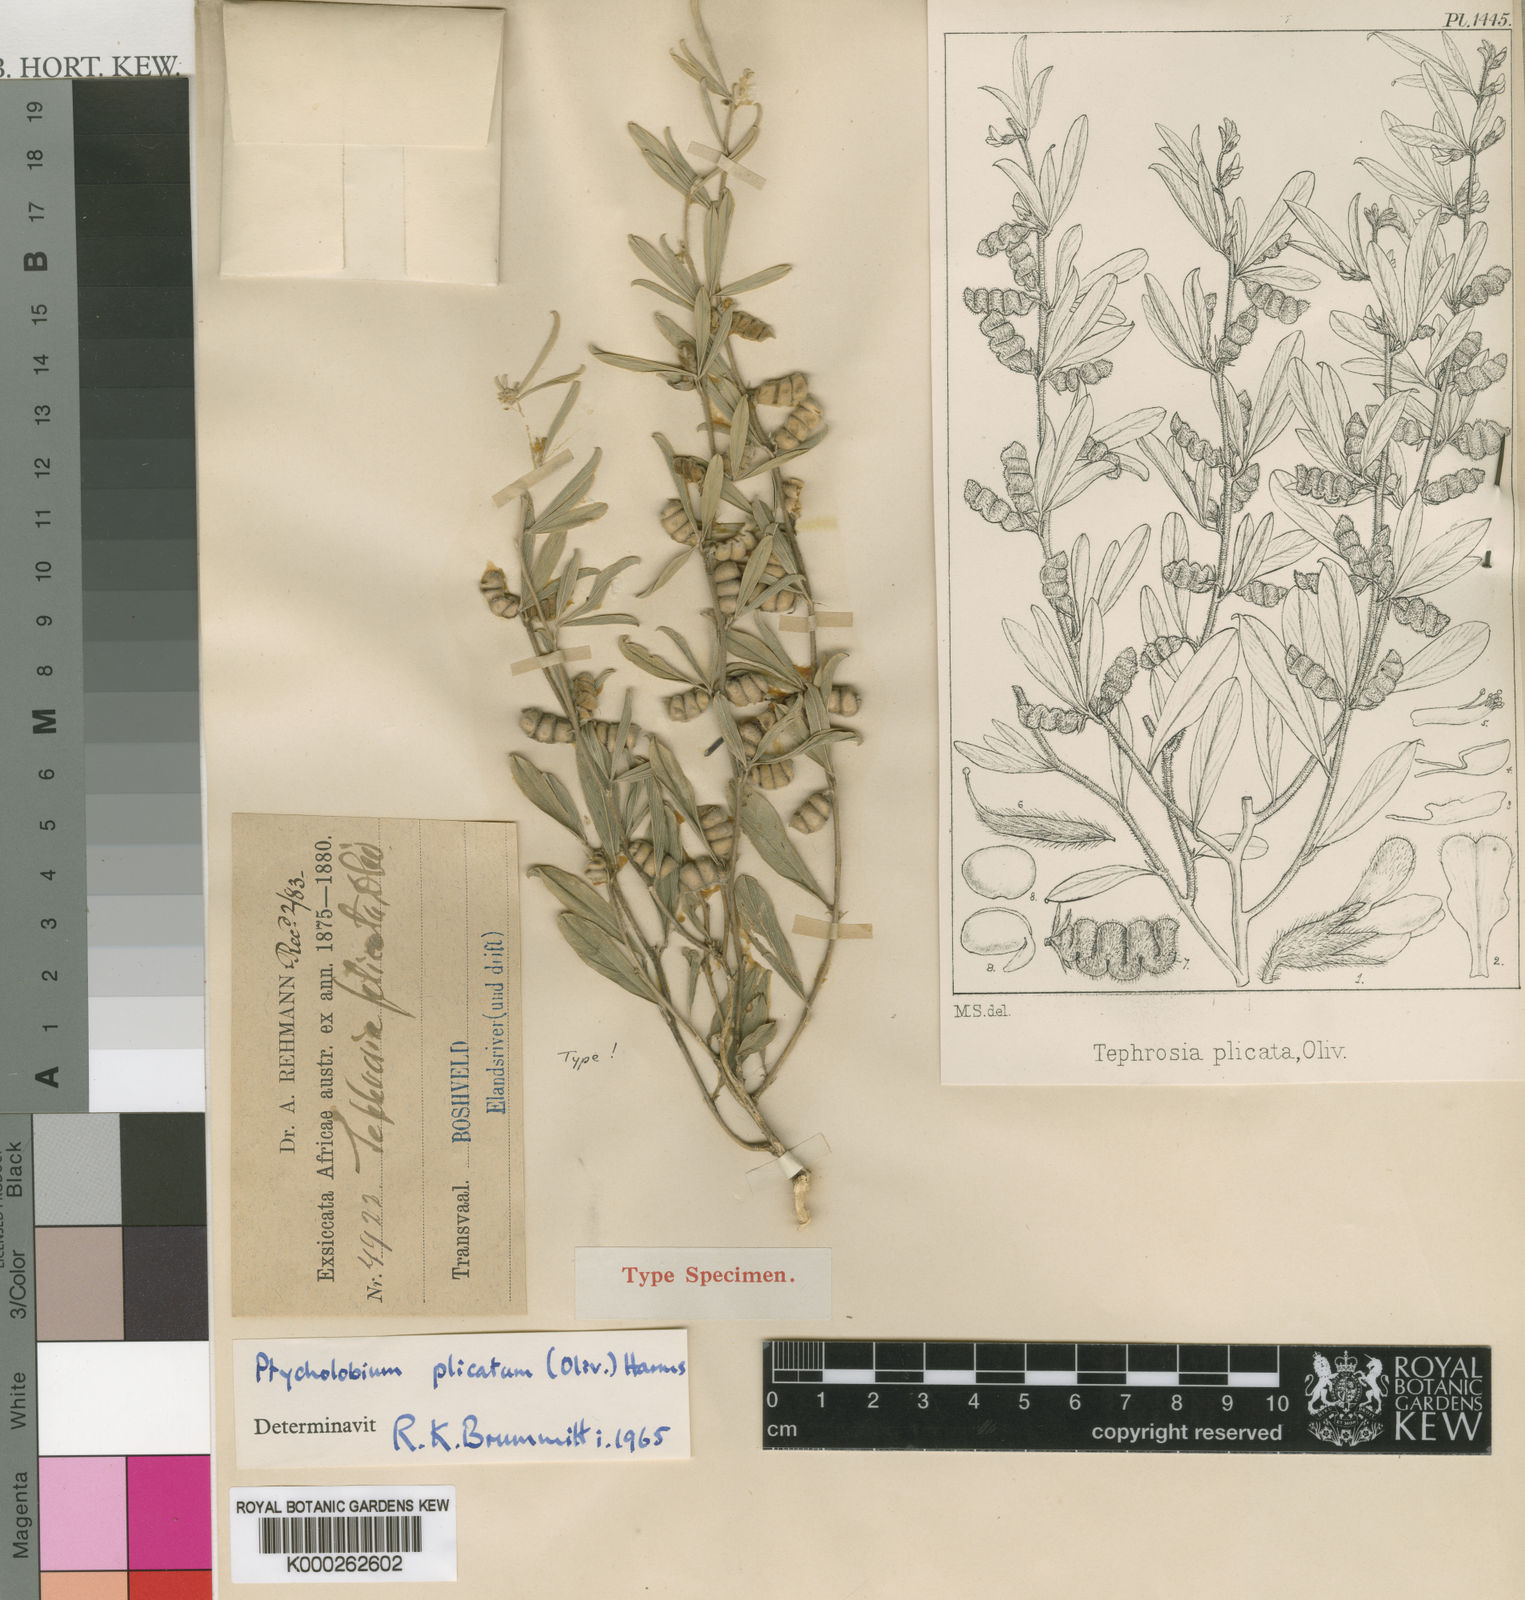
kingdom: Plantae
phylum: Tracheophyta
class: Magnoliopsida
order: Fabales
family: Fabaceae
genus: Ptycholobium
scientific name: Ptycholobium plicatum
